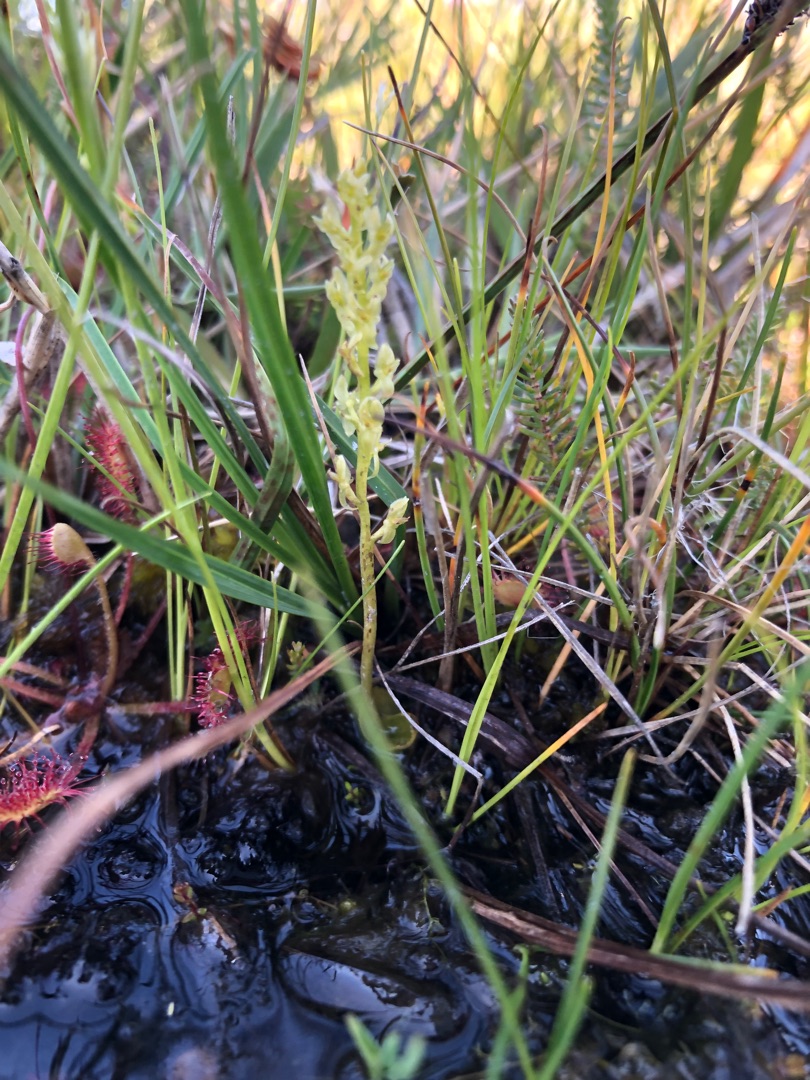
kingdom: Plantae
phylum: Tracheophyta
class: Liliopsida
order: Asparagales
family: Orchidaceae
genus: Hammarbya
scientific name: Hammarbya paludosa
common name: Hjertelæbe
